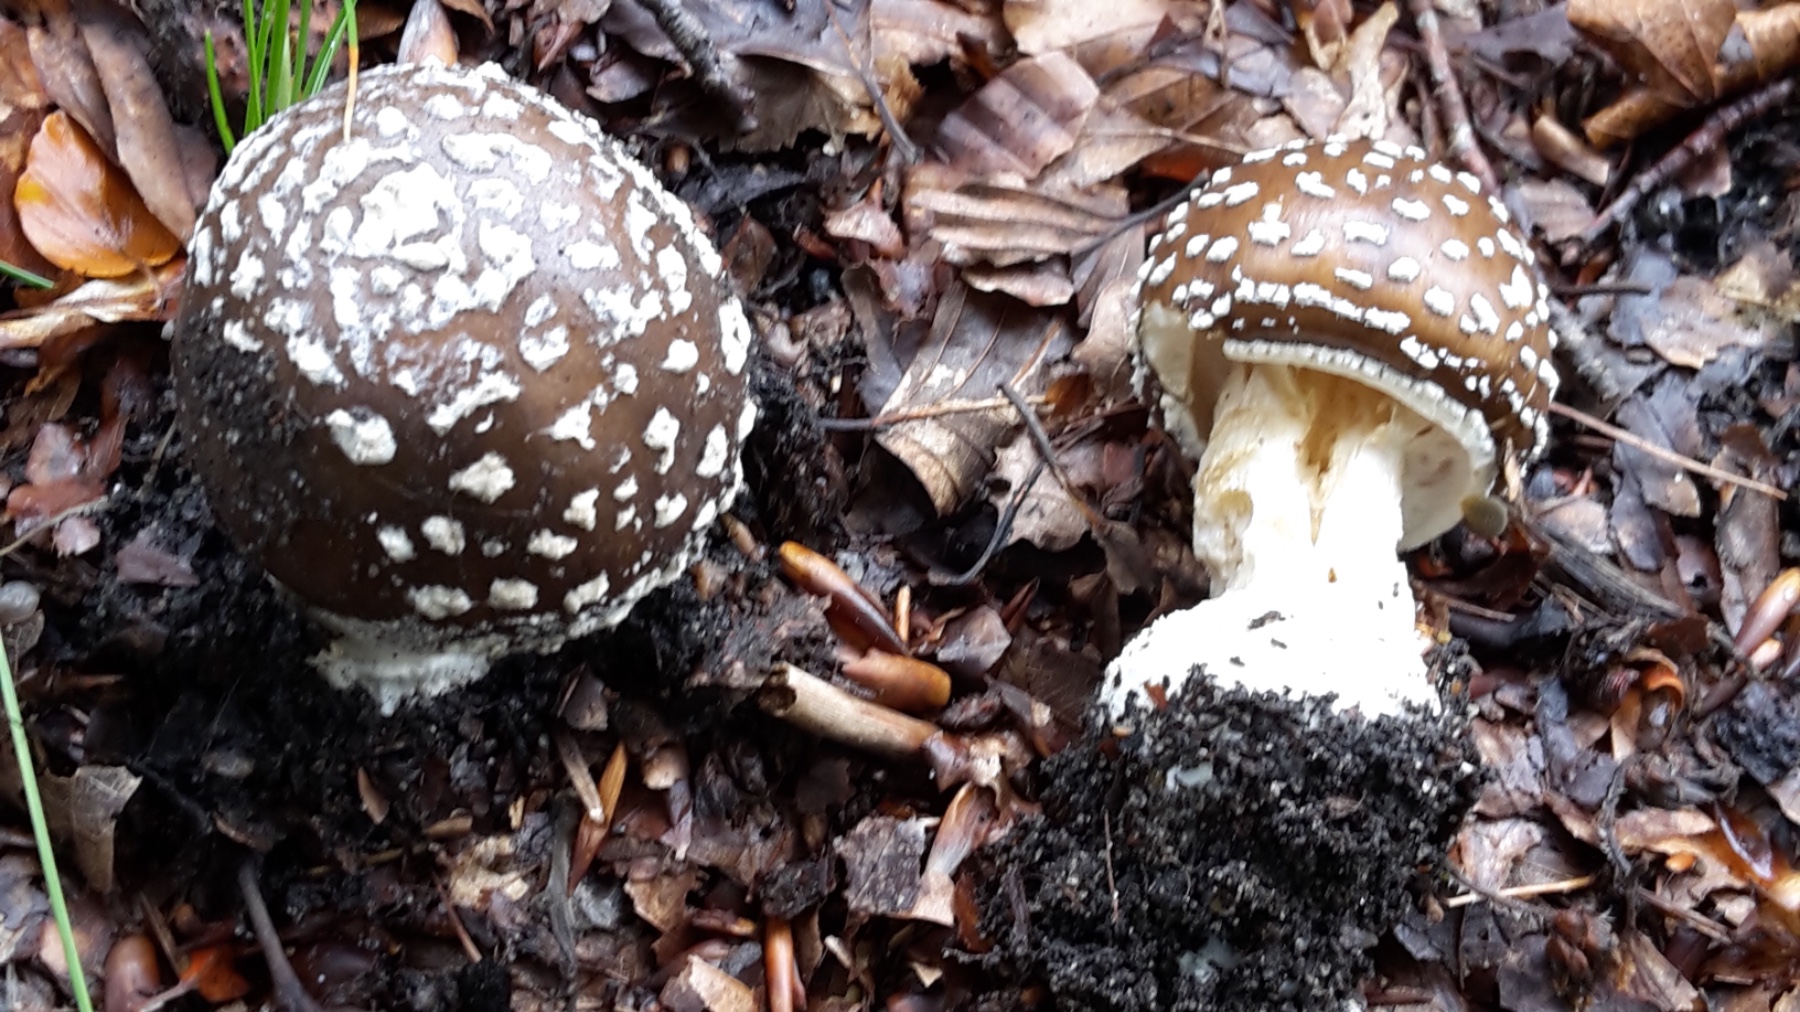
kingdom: Fungi
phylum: Basidiomycota
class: Agaricomycetes
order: Agaricales
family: Amanitaceae
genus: Amanita
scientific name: Amanita pantherina
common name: panter-fluesvamp
